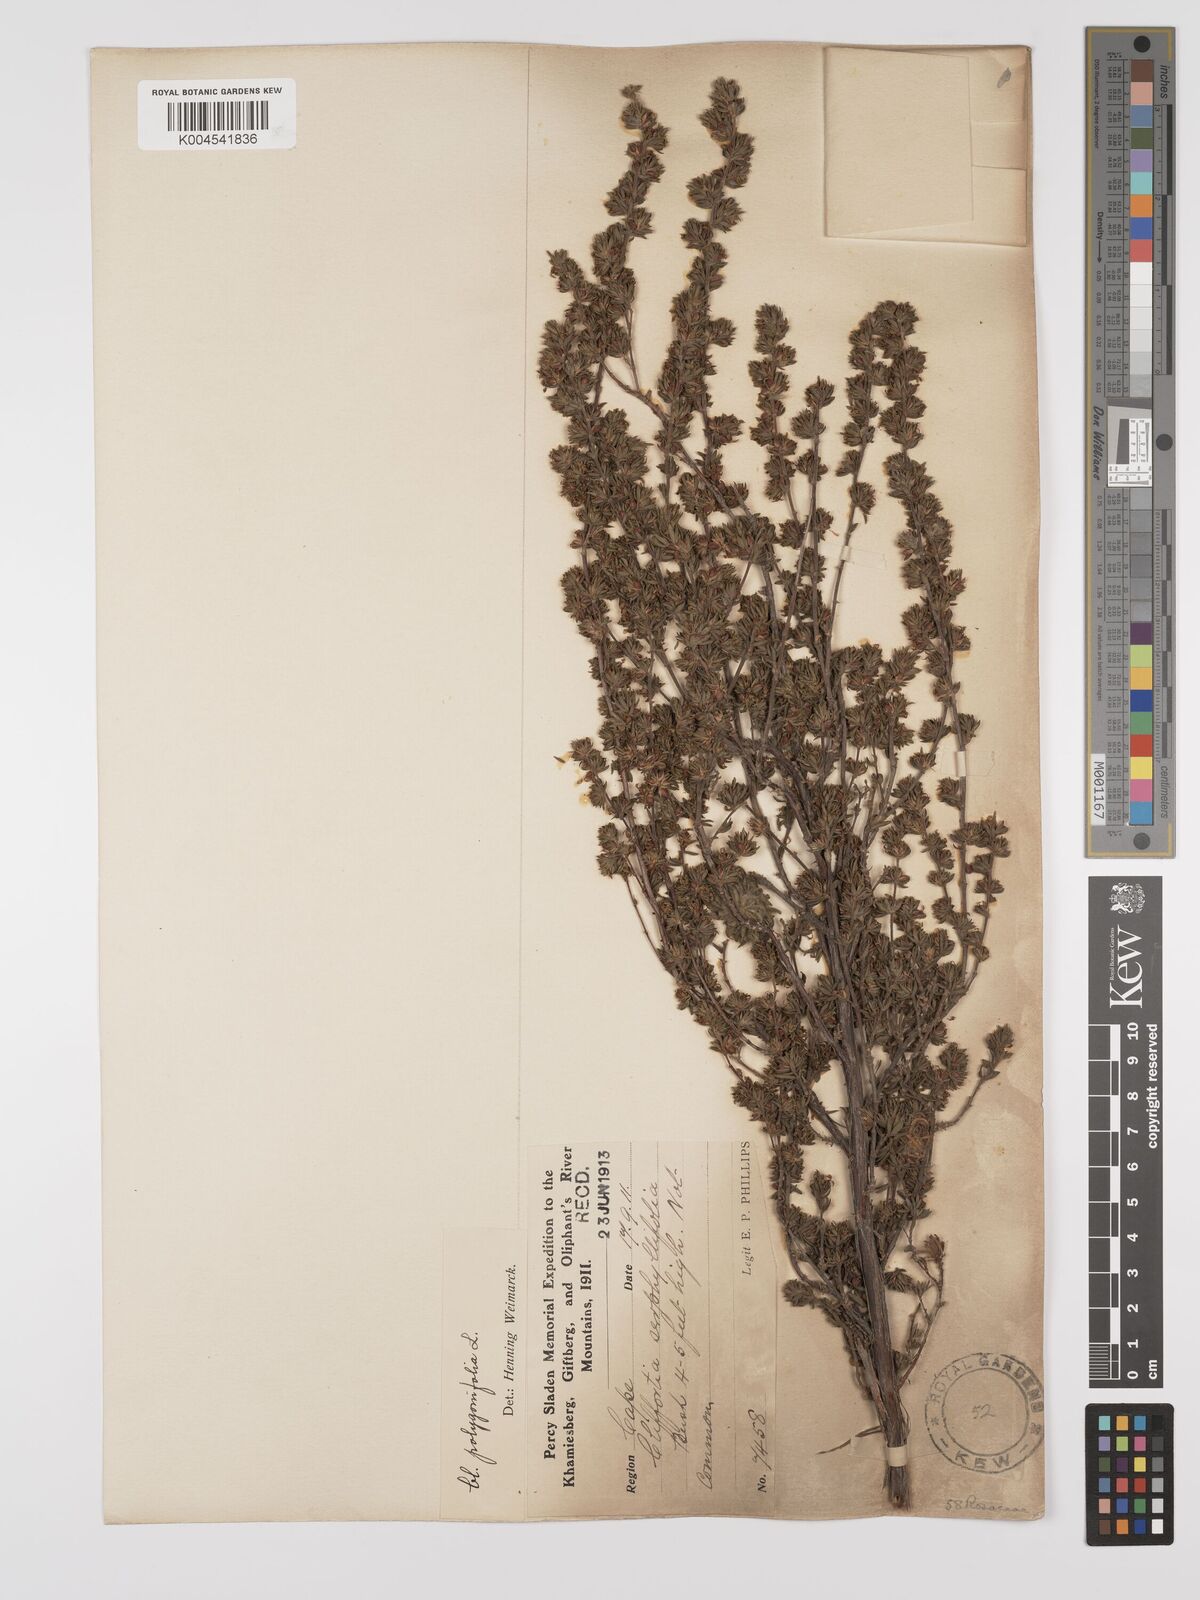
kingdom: Plantae
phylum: Tracheophyta
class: Magnoliopsida
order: Rosales
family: Rosaceae
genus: Cliffortia
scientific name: Cliffortia polygonifolia
